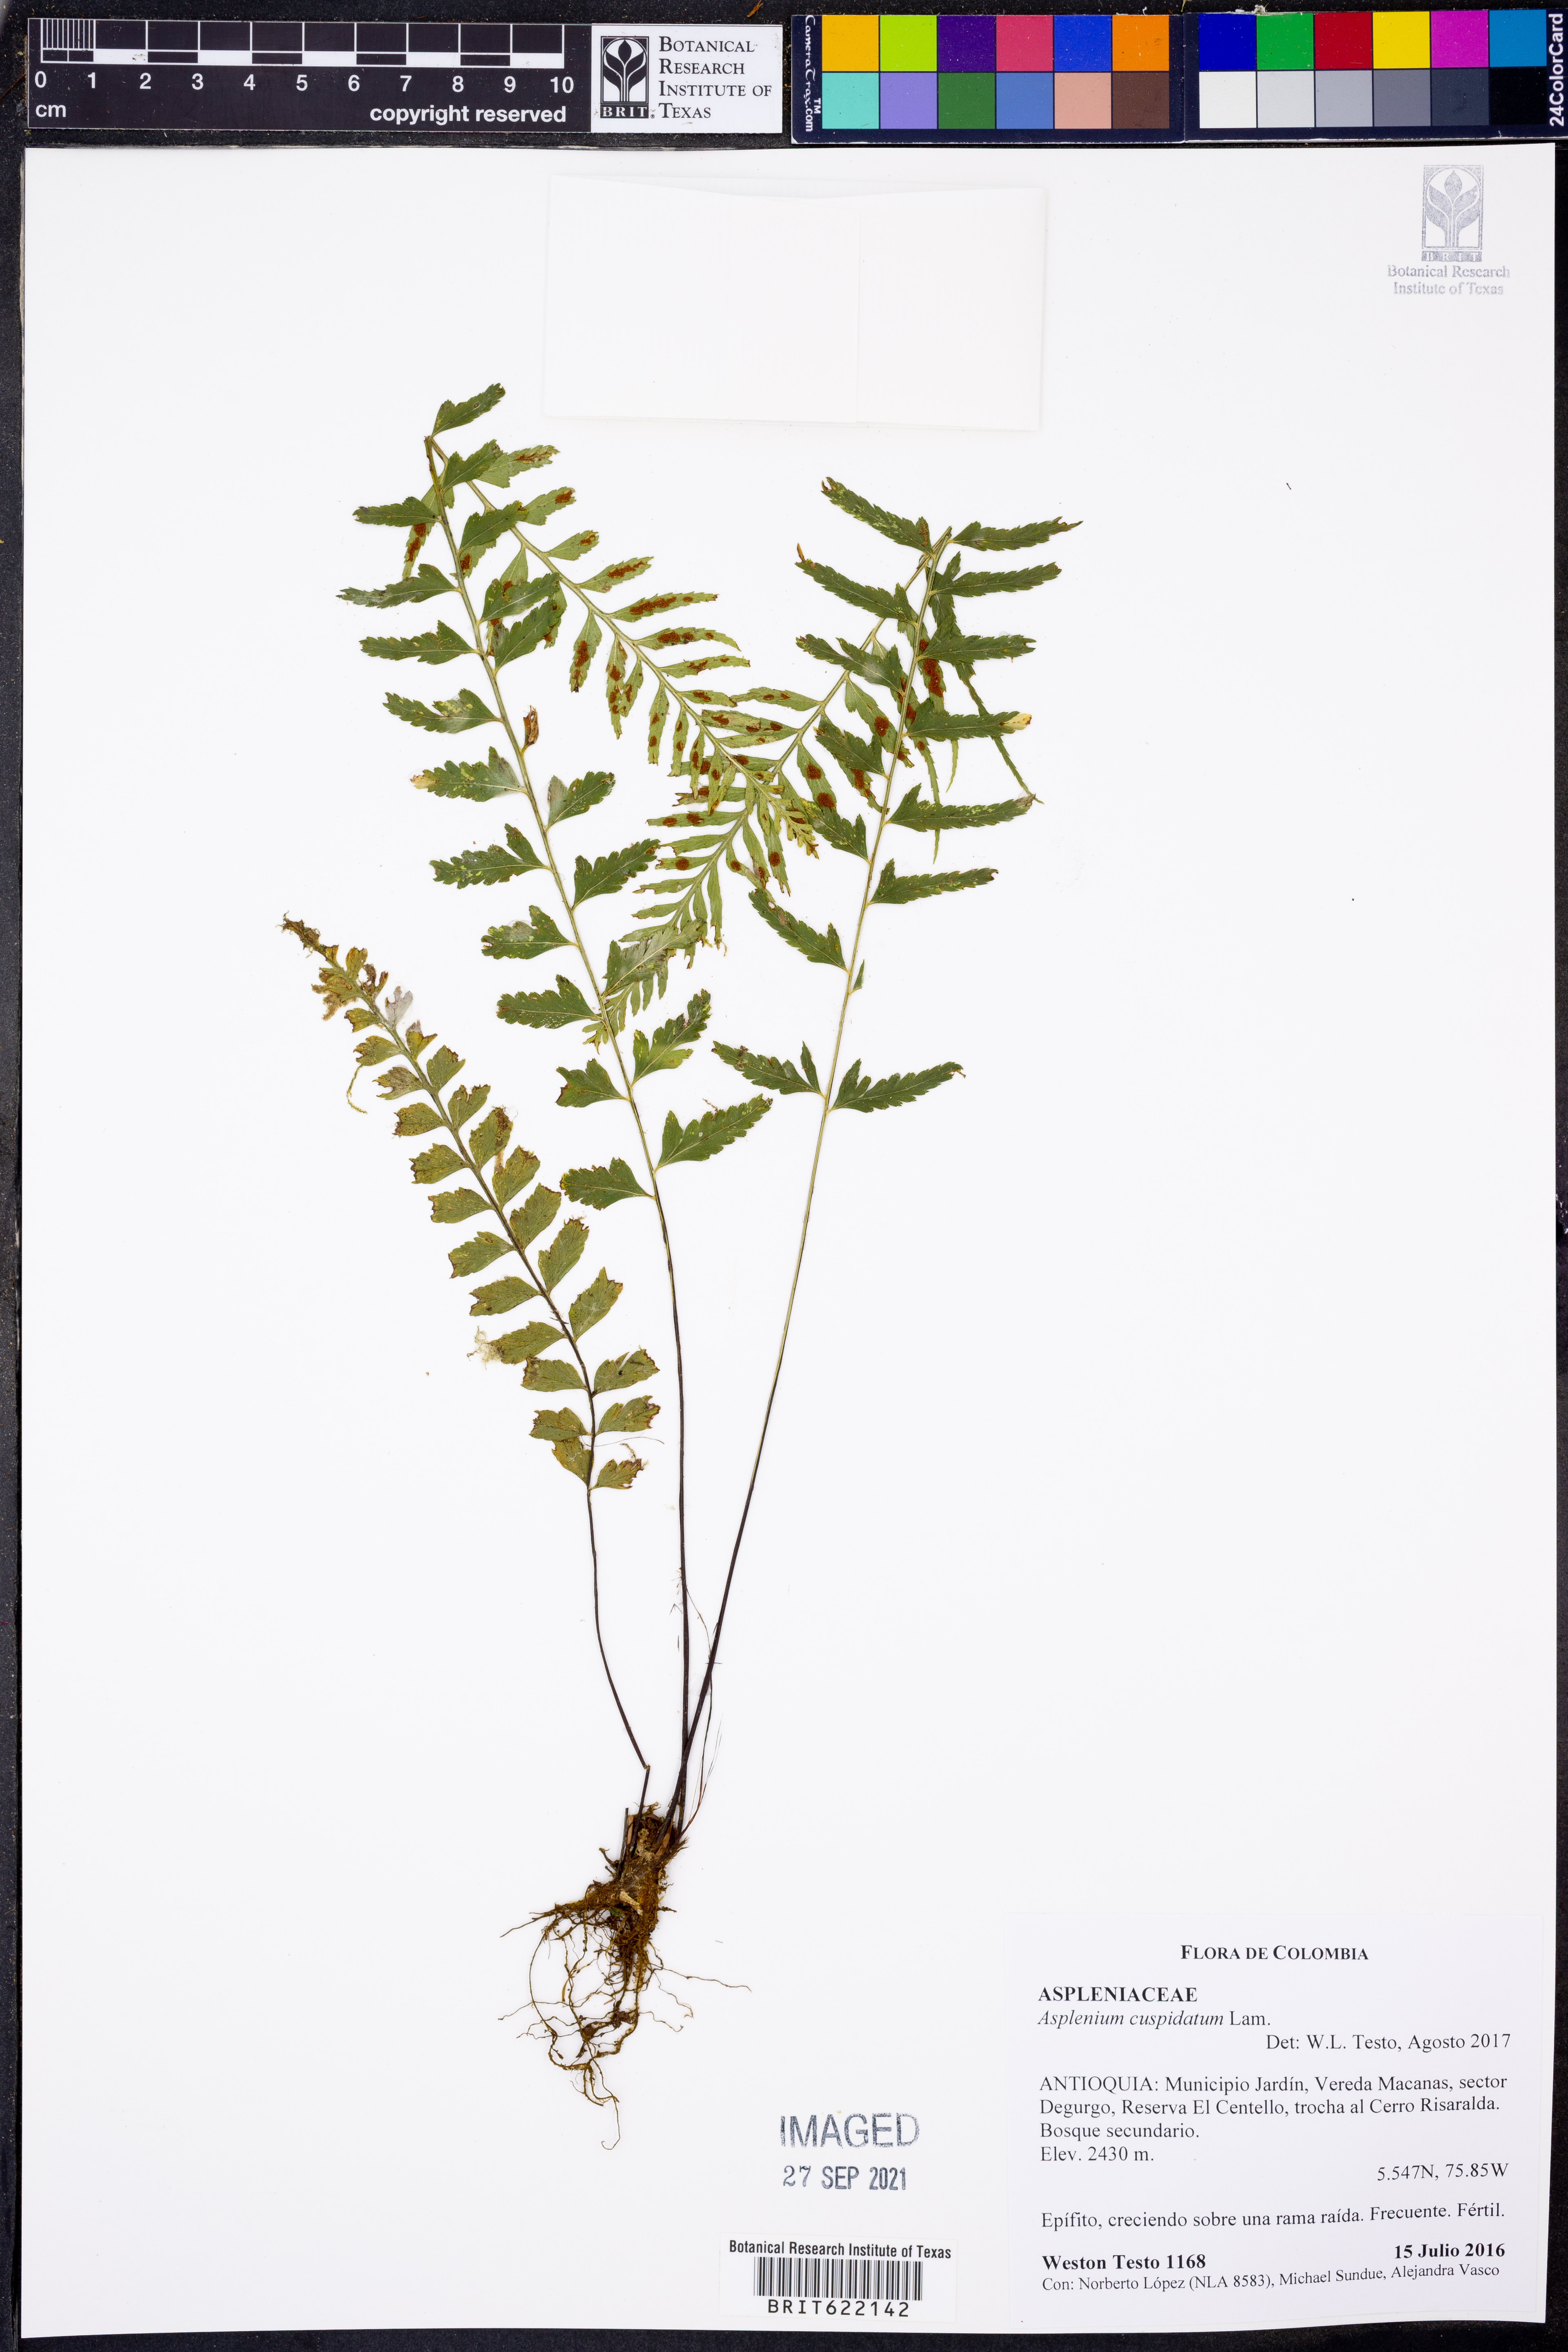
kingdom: Plantae
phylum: Tracheophyta
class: Polypodiopsida
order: Polypodiales
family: Aspleniaceae
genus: Asplenium
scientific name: Asplenium cuspidatum
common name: Eared spleenwort
